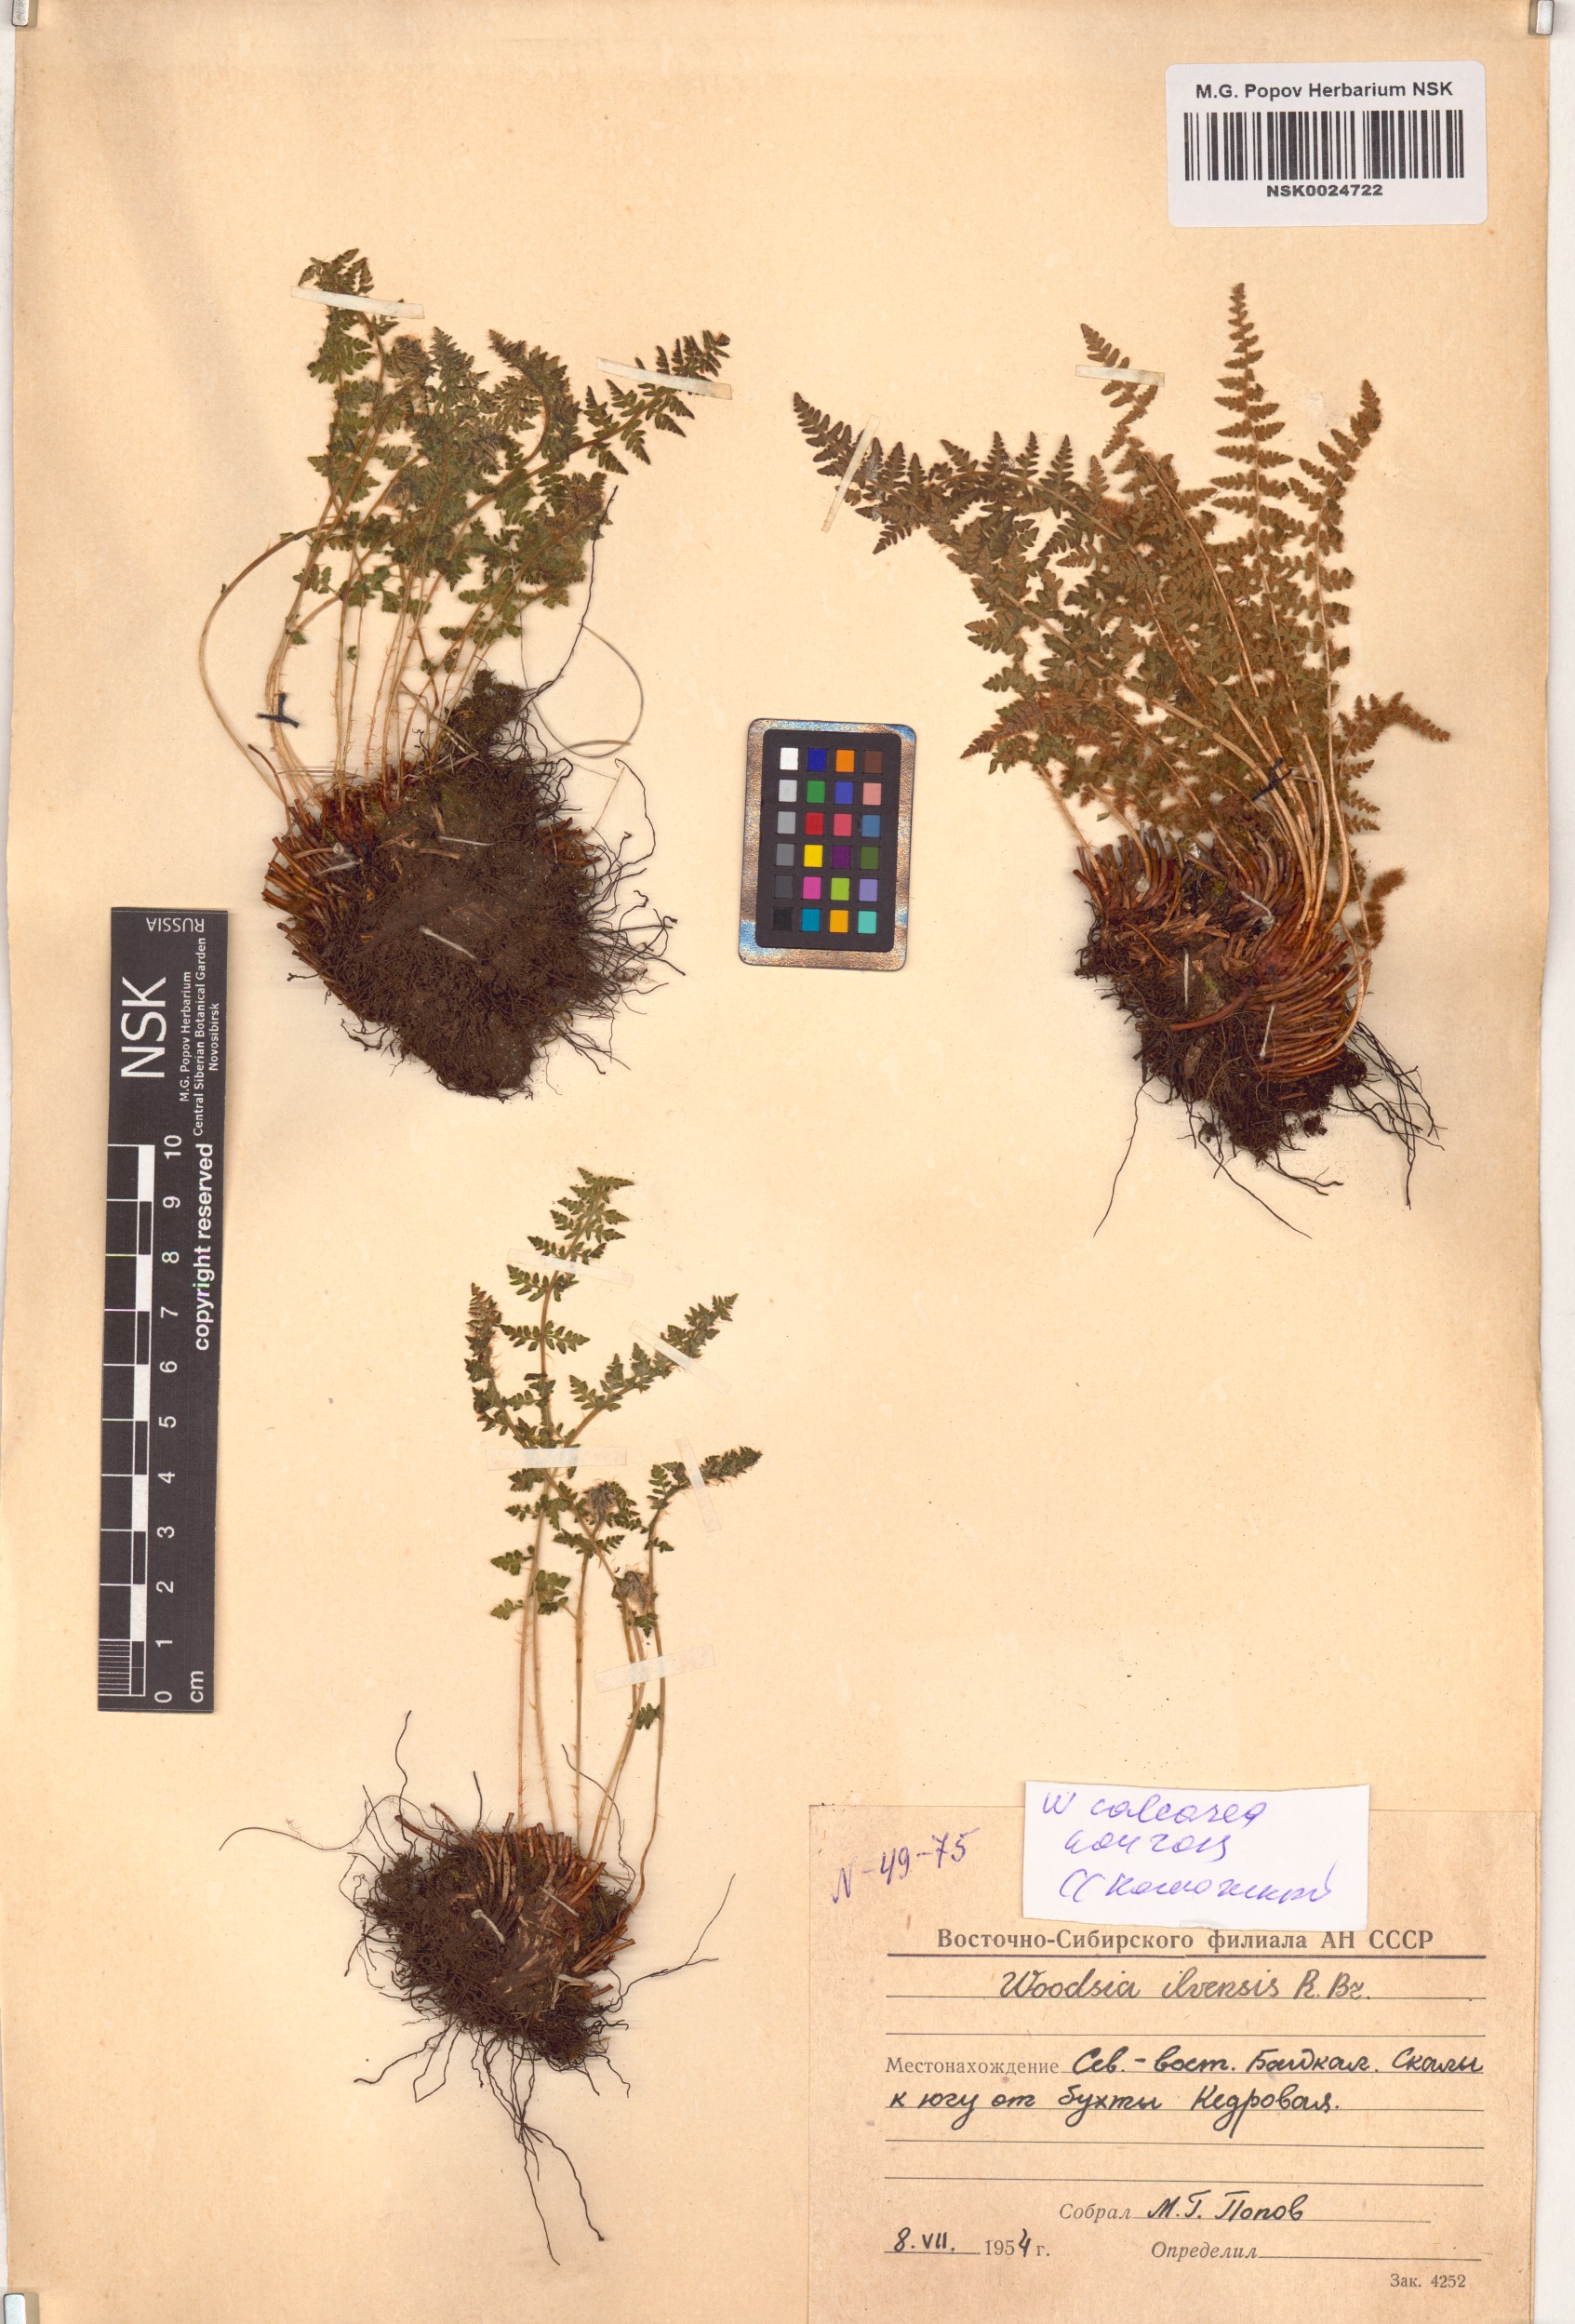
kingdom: Plantae
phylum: Tracheophyta
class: Polypodiopsida
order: Polypodiales
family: Woodsiaceae
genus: Woodsia
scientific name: Woodsia calcarea
